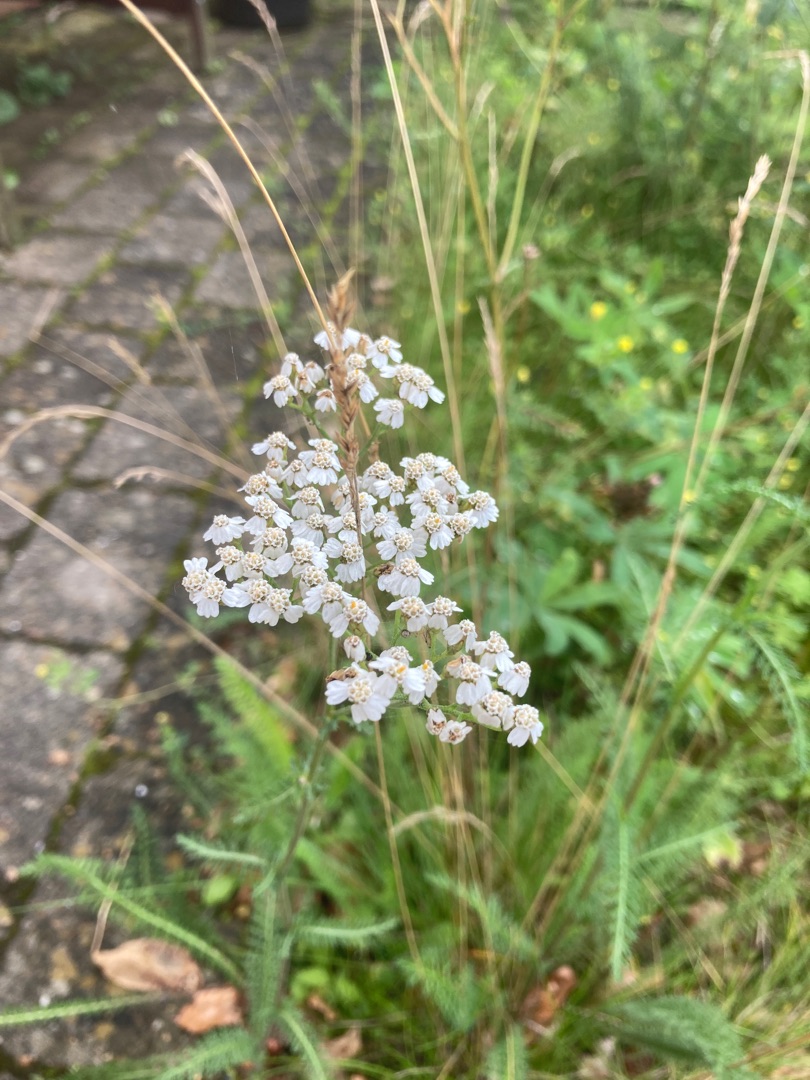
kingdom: Plantae
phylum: Tracheophyta
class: Magnoliopsida
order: Asterales
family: Asteraceae
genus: Achillea
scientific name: Achillea millefolium
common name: Almindelig røllike
